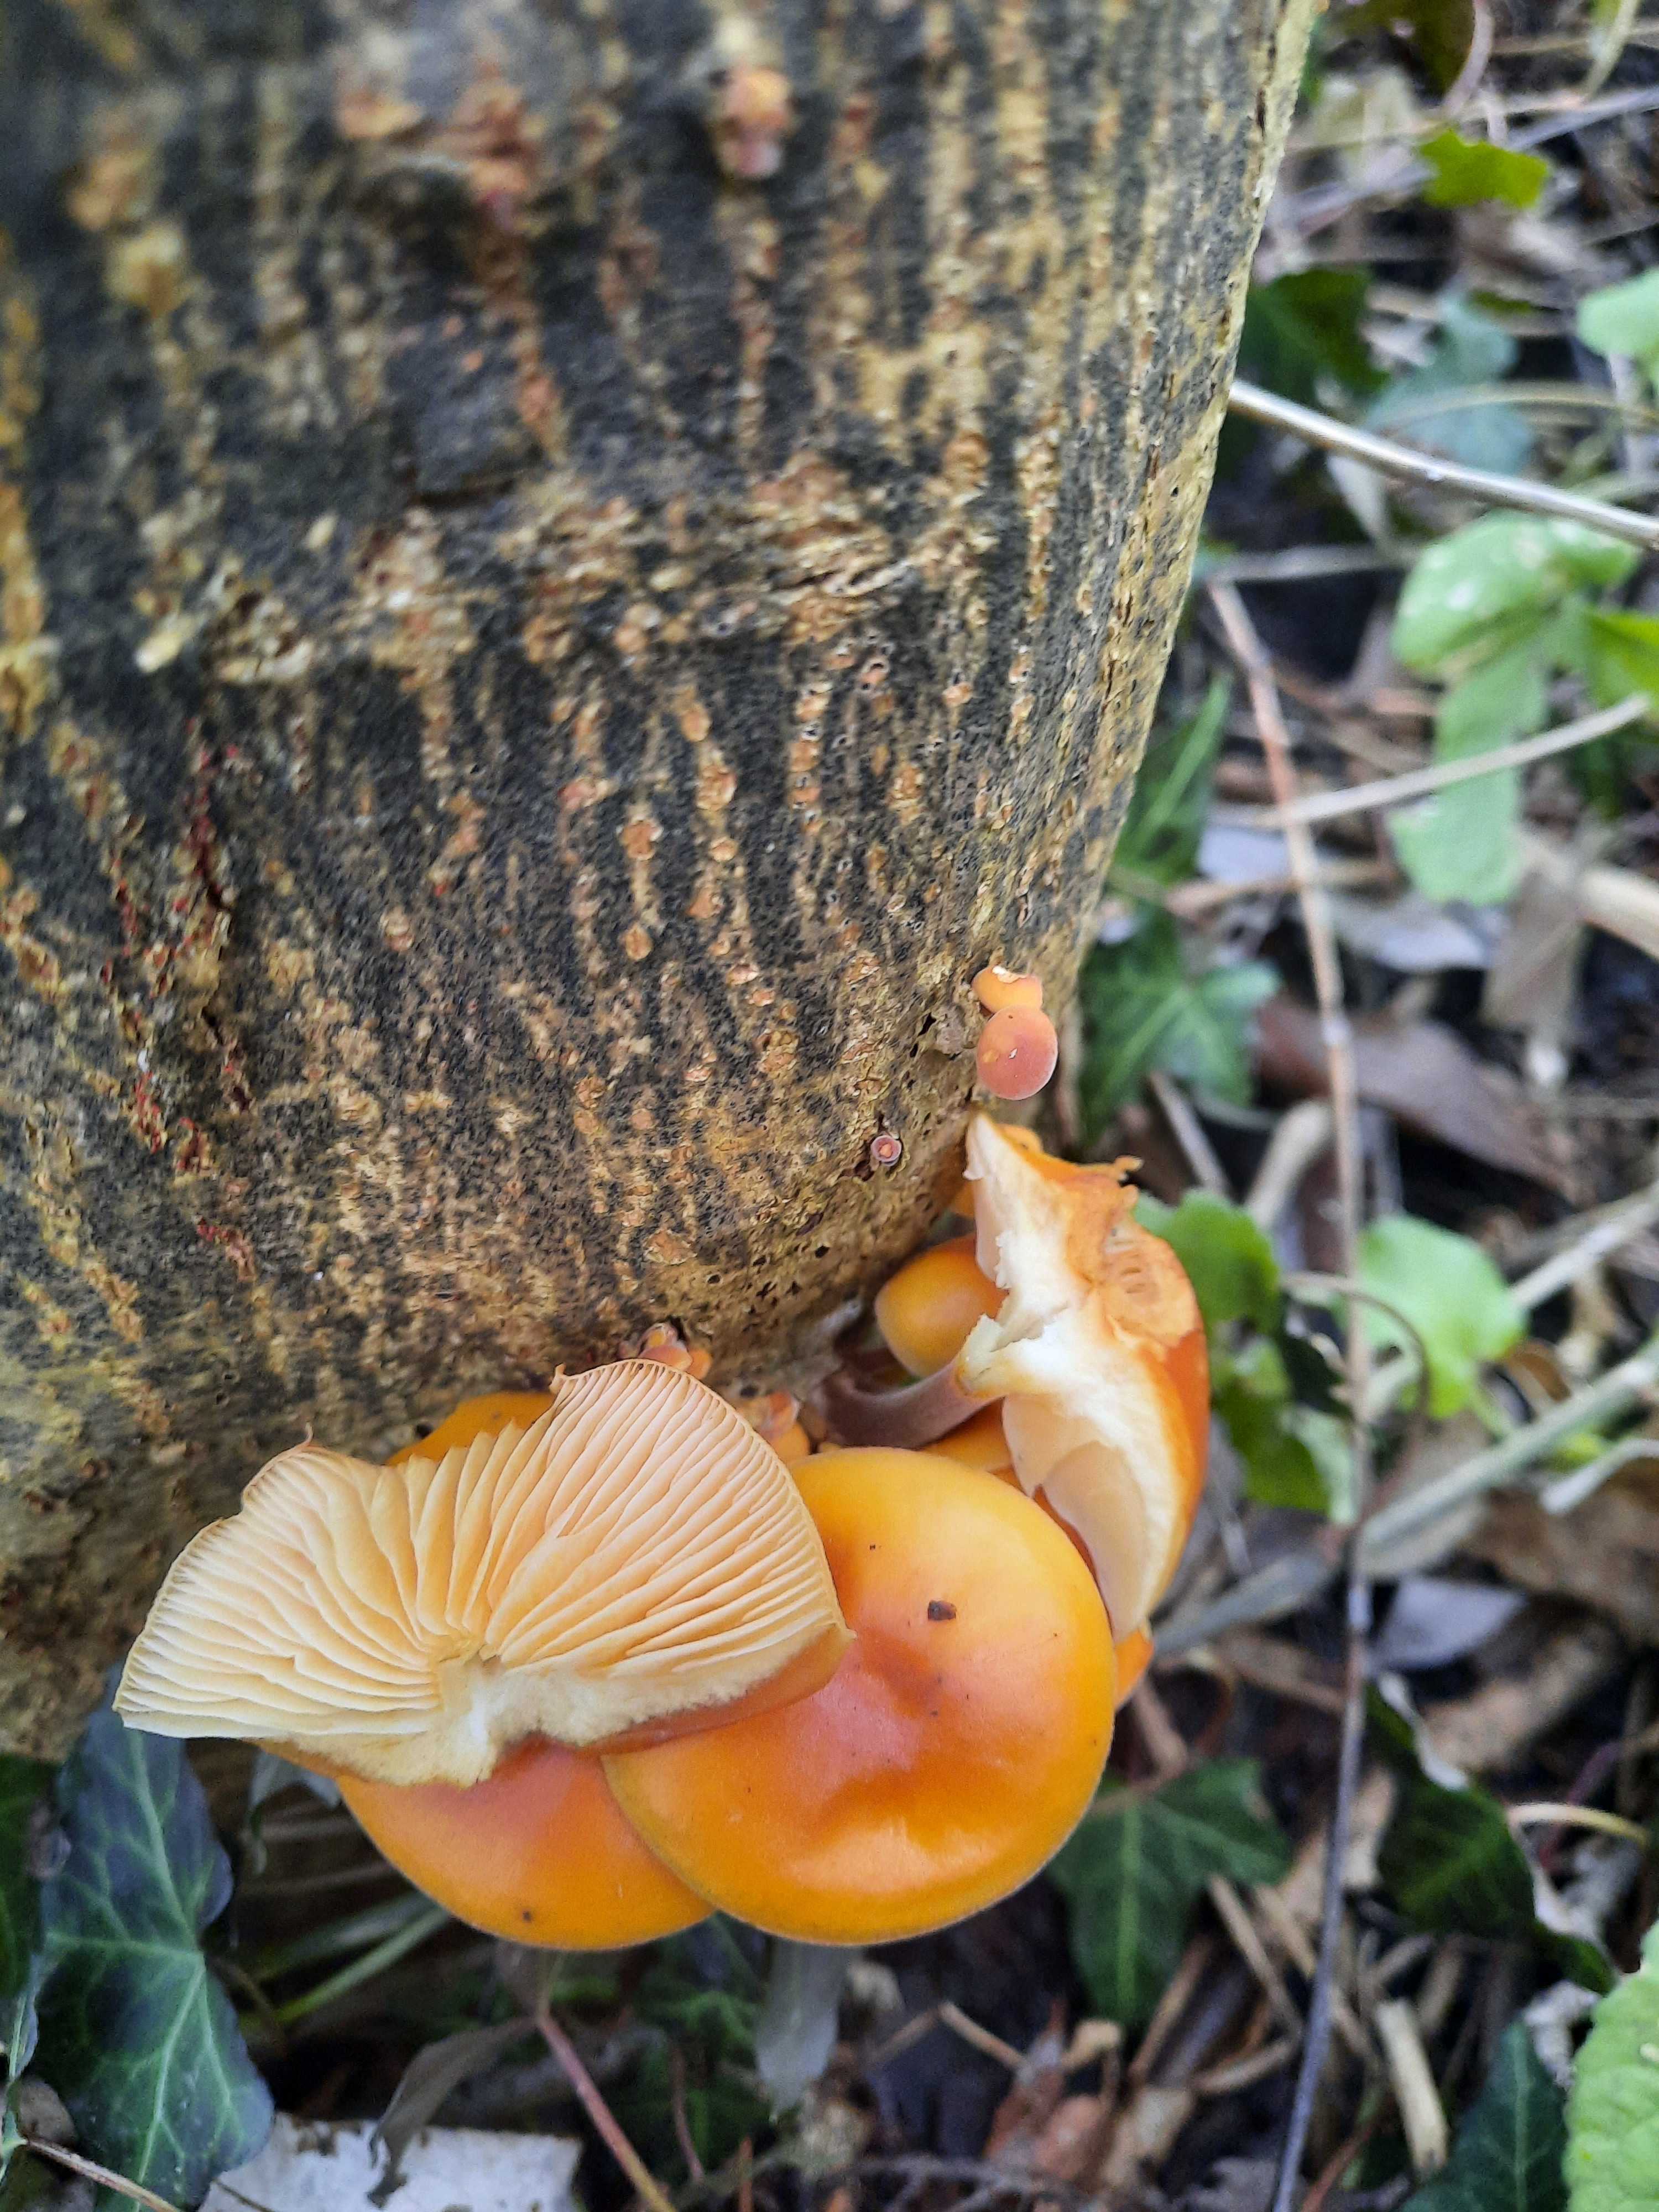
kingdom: Fungi
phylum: Basidiomycota
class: Agaricomycetes
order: Agaricales
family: Physalacriaceae
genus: Flammulina
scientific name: Flammulina
